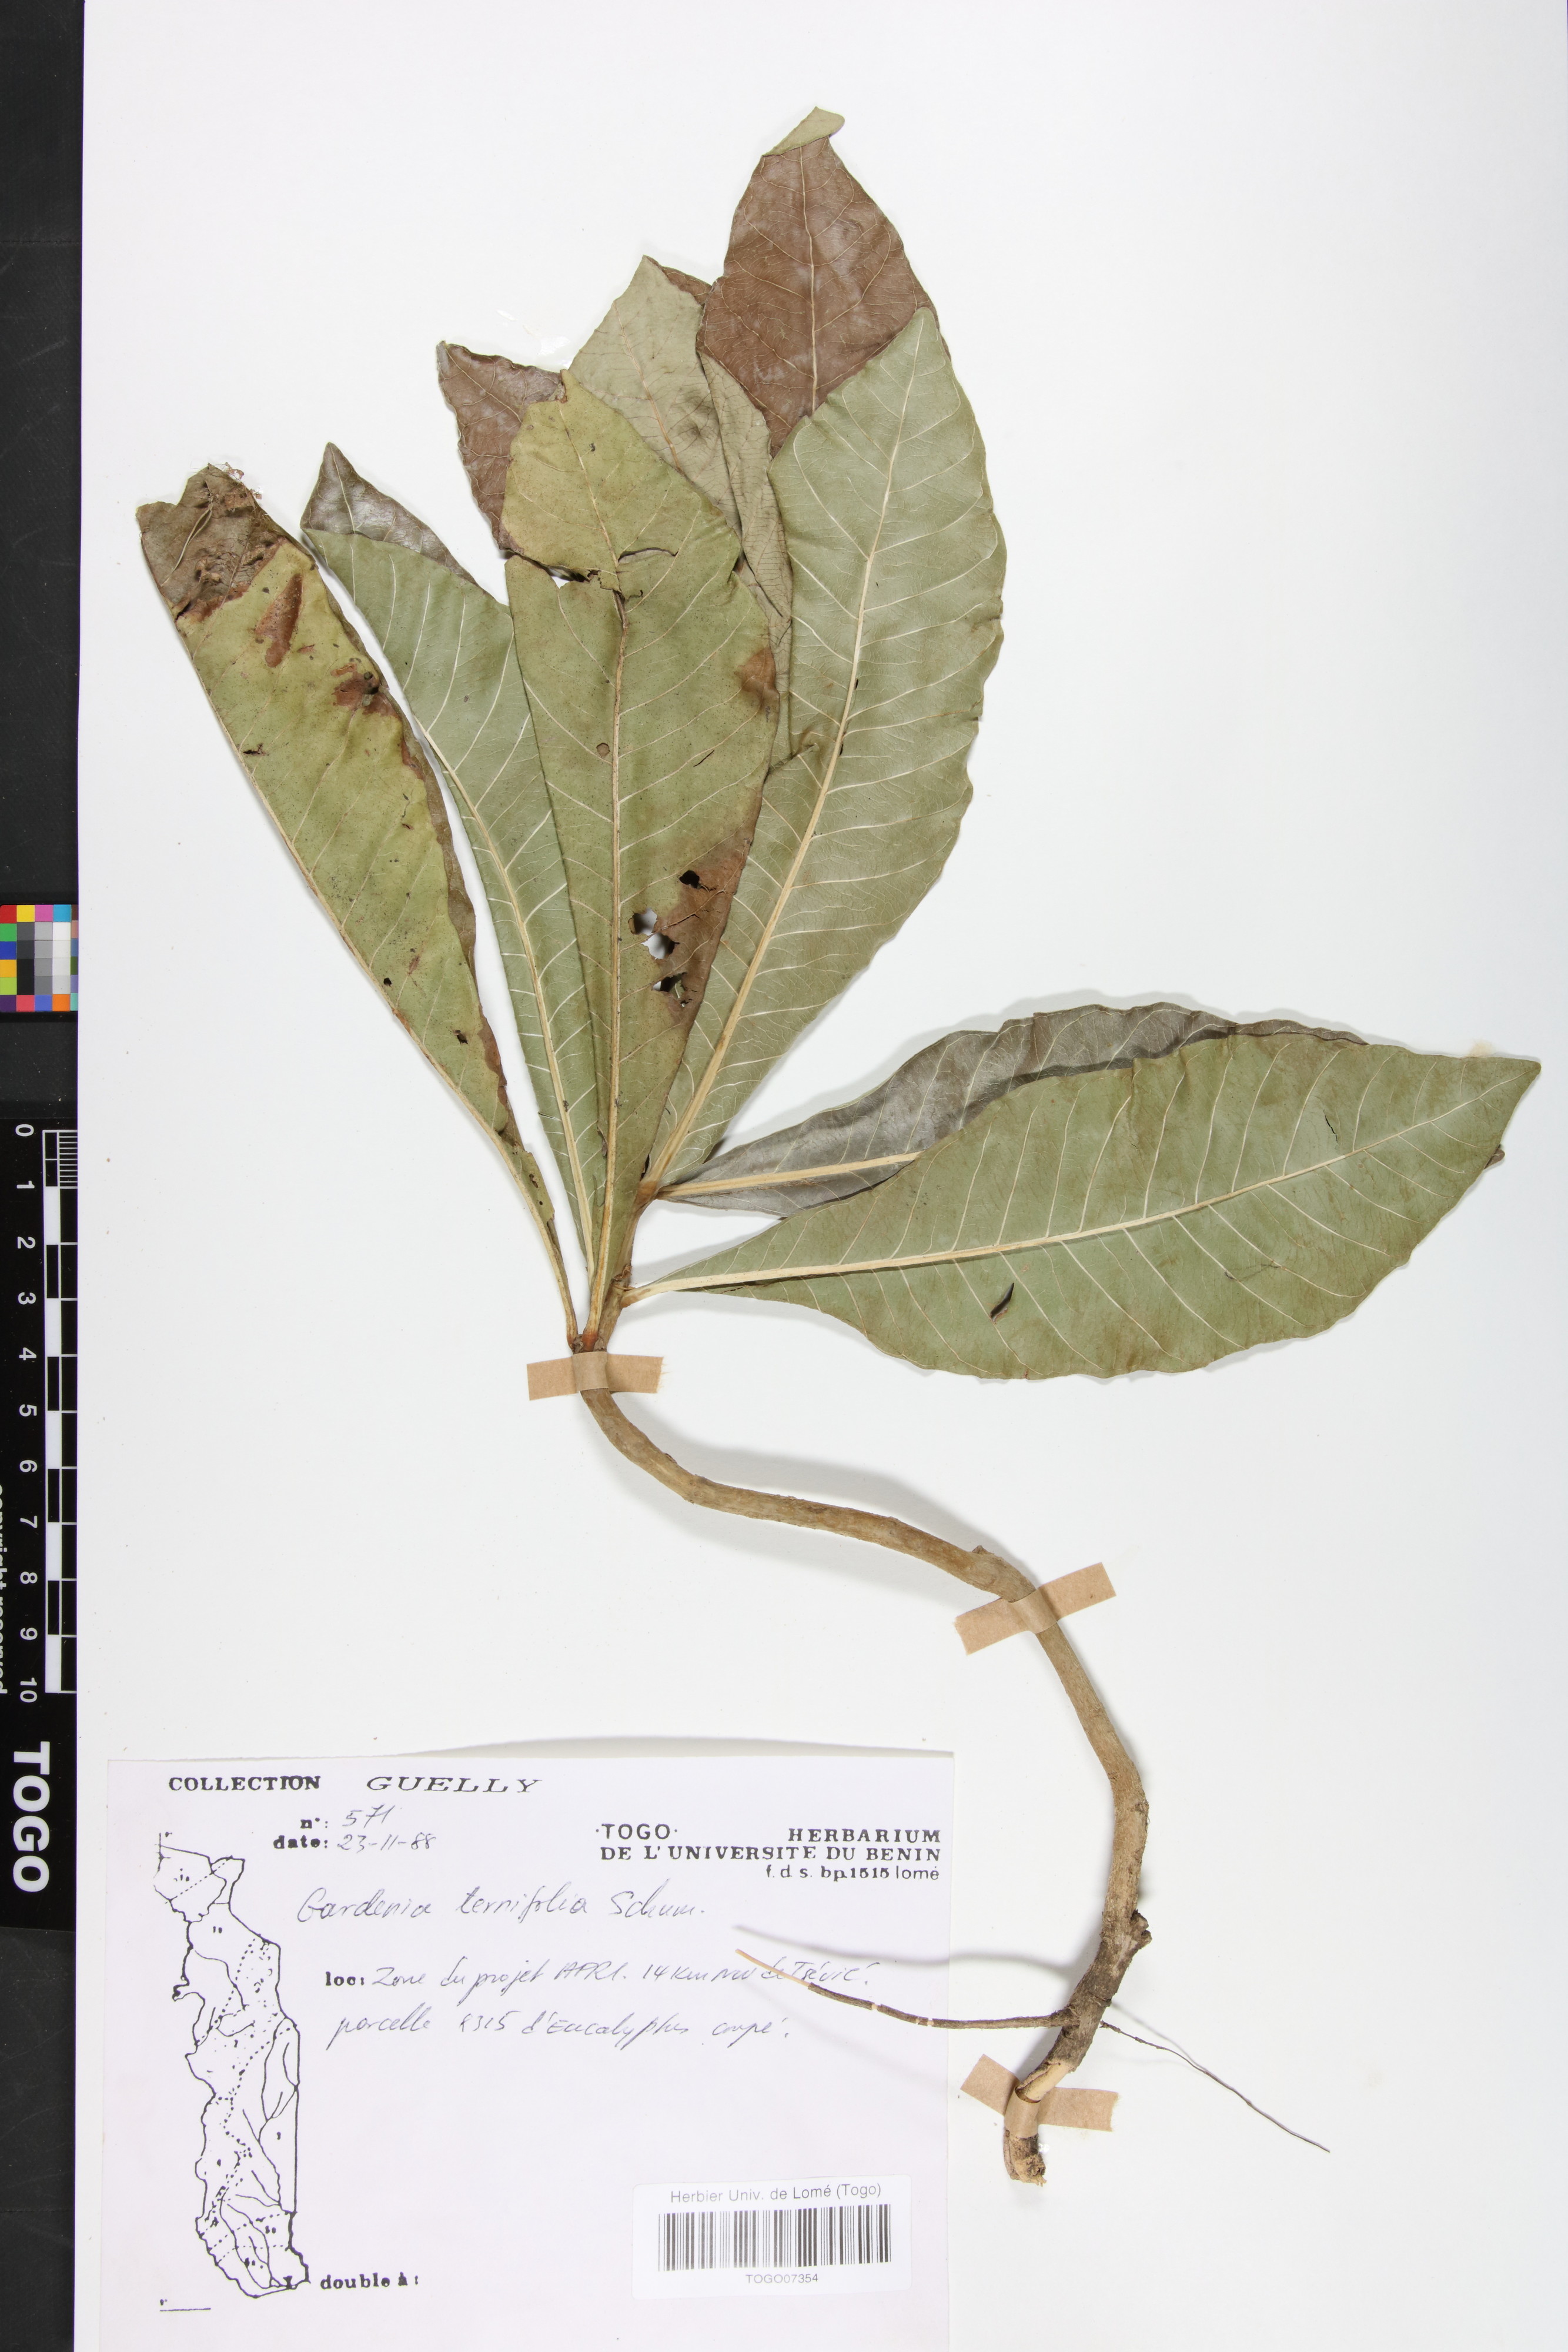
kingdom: Plantae
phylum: Tracheophyta
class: Magnoliopsida
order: Gentianales
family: Rubiaceae
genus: Gardenia
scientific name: Gardenia ternifolia
